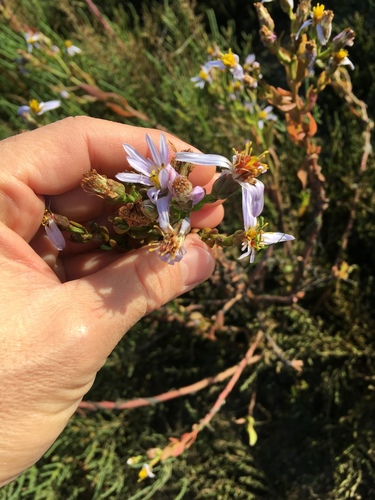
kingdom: Plantae
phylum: Tracheophyta
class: Magnoliopsida
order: Asterales
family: Asteraceae
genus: Tripolium
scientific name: Tripolium pannonicum
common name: Sea aster
